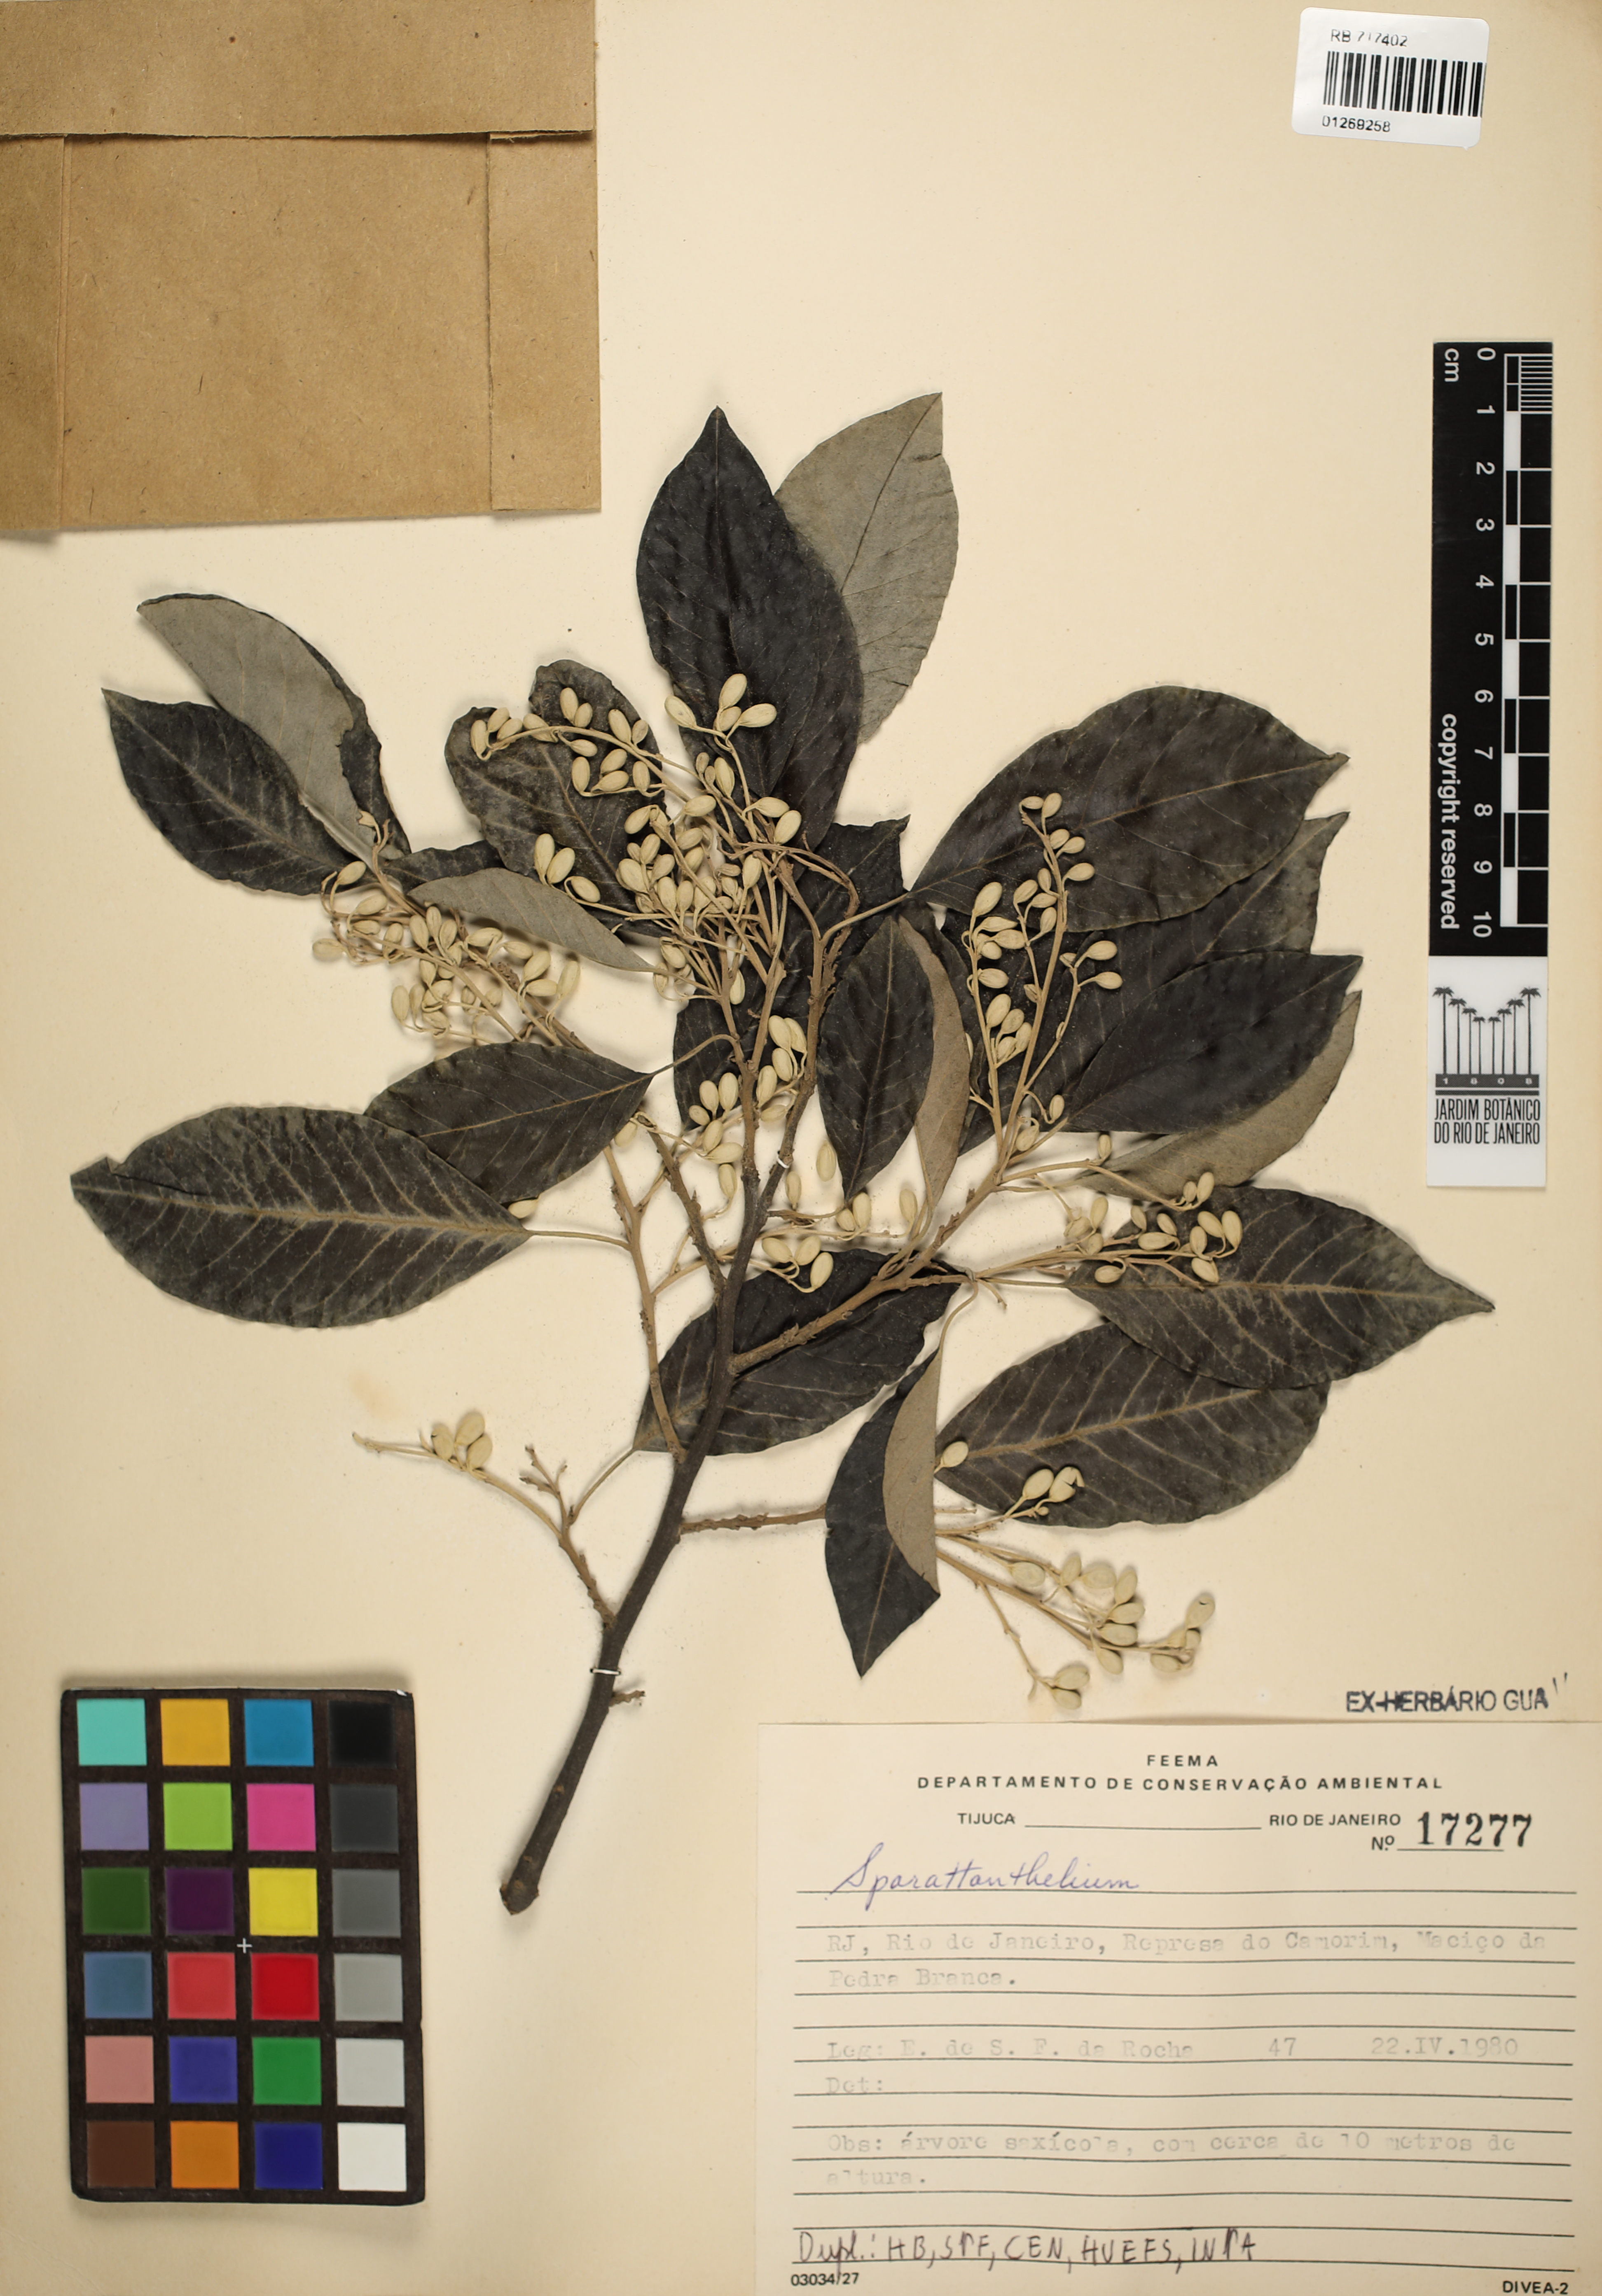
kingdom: Plantae
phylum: Tracheophyta
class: Magnoliopsida
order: Laurales
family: Hernandiaceae
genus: Sparattanthelium
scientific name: Sparattanthelium
